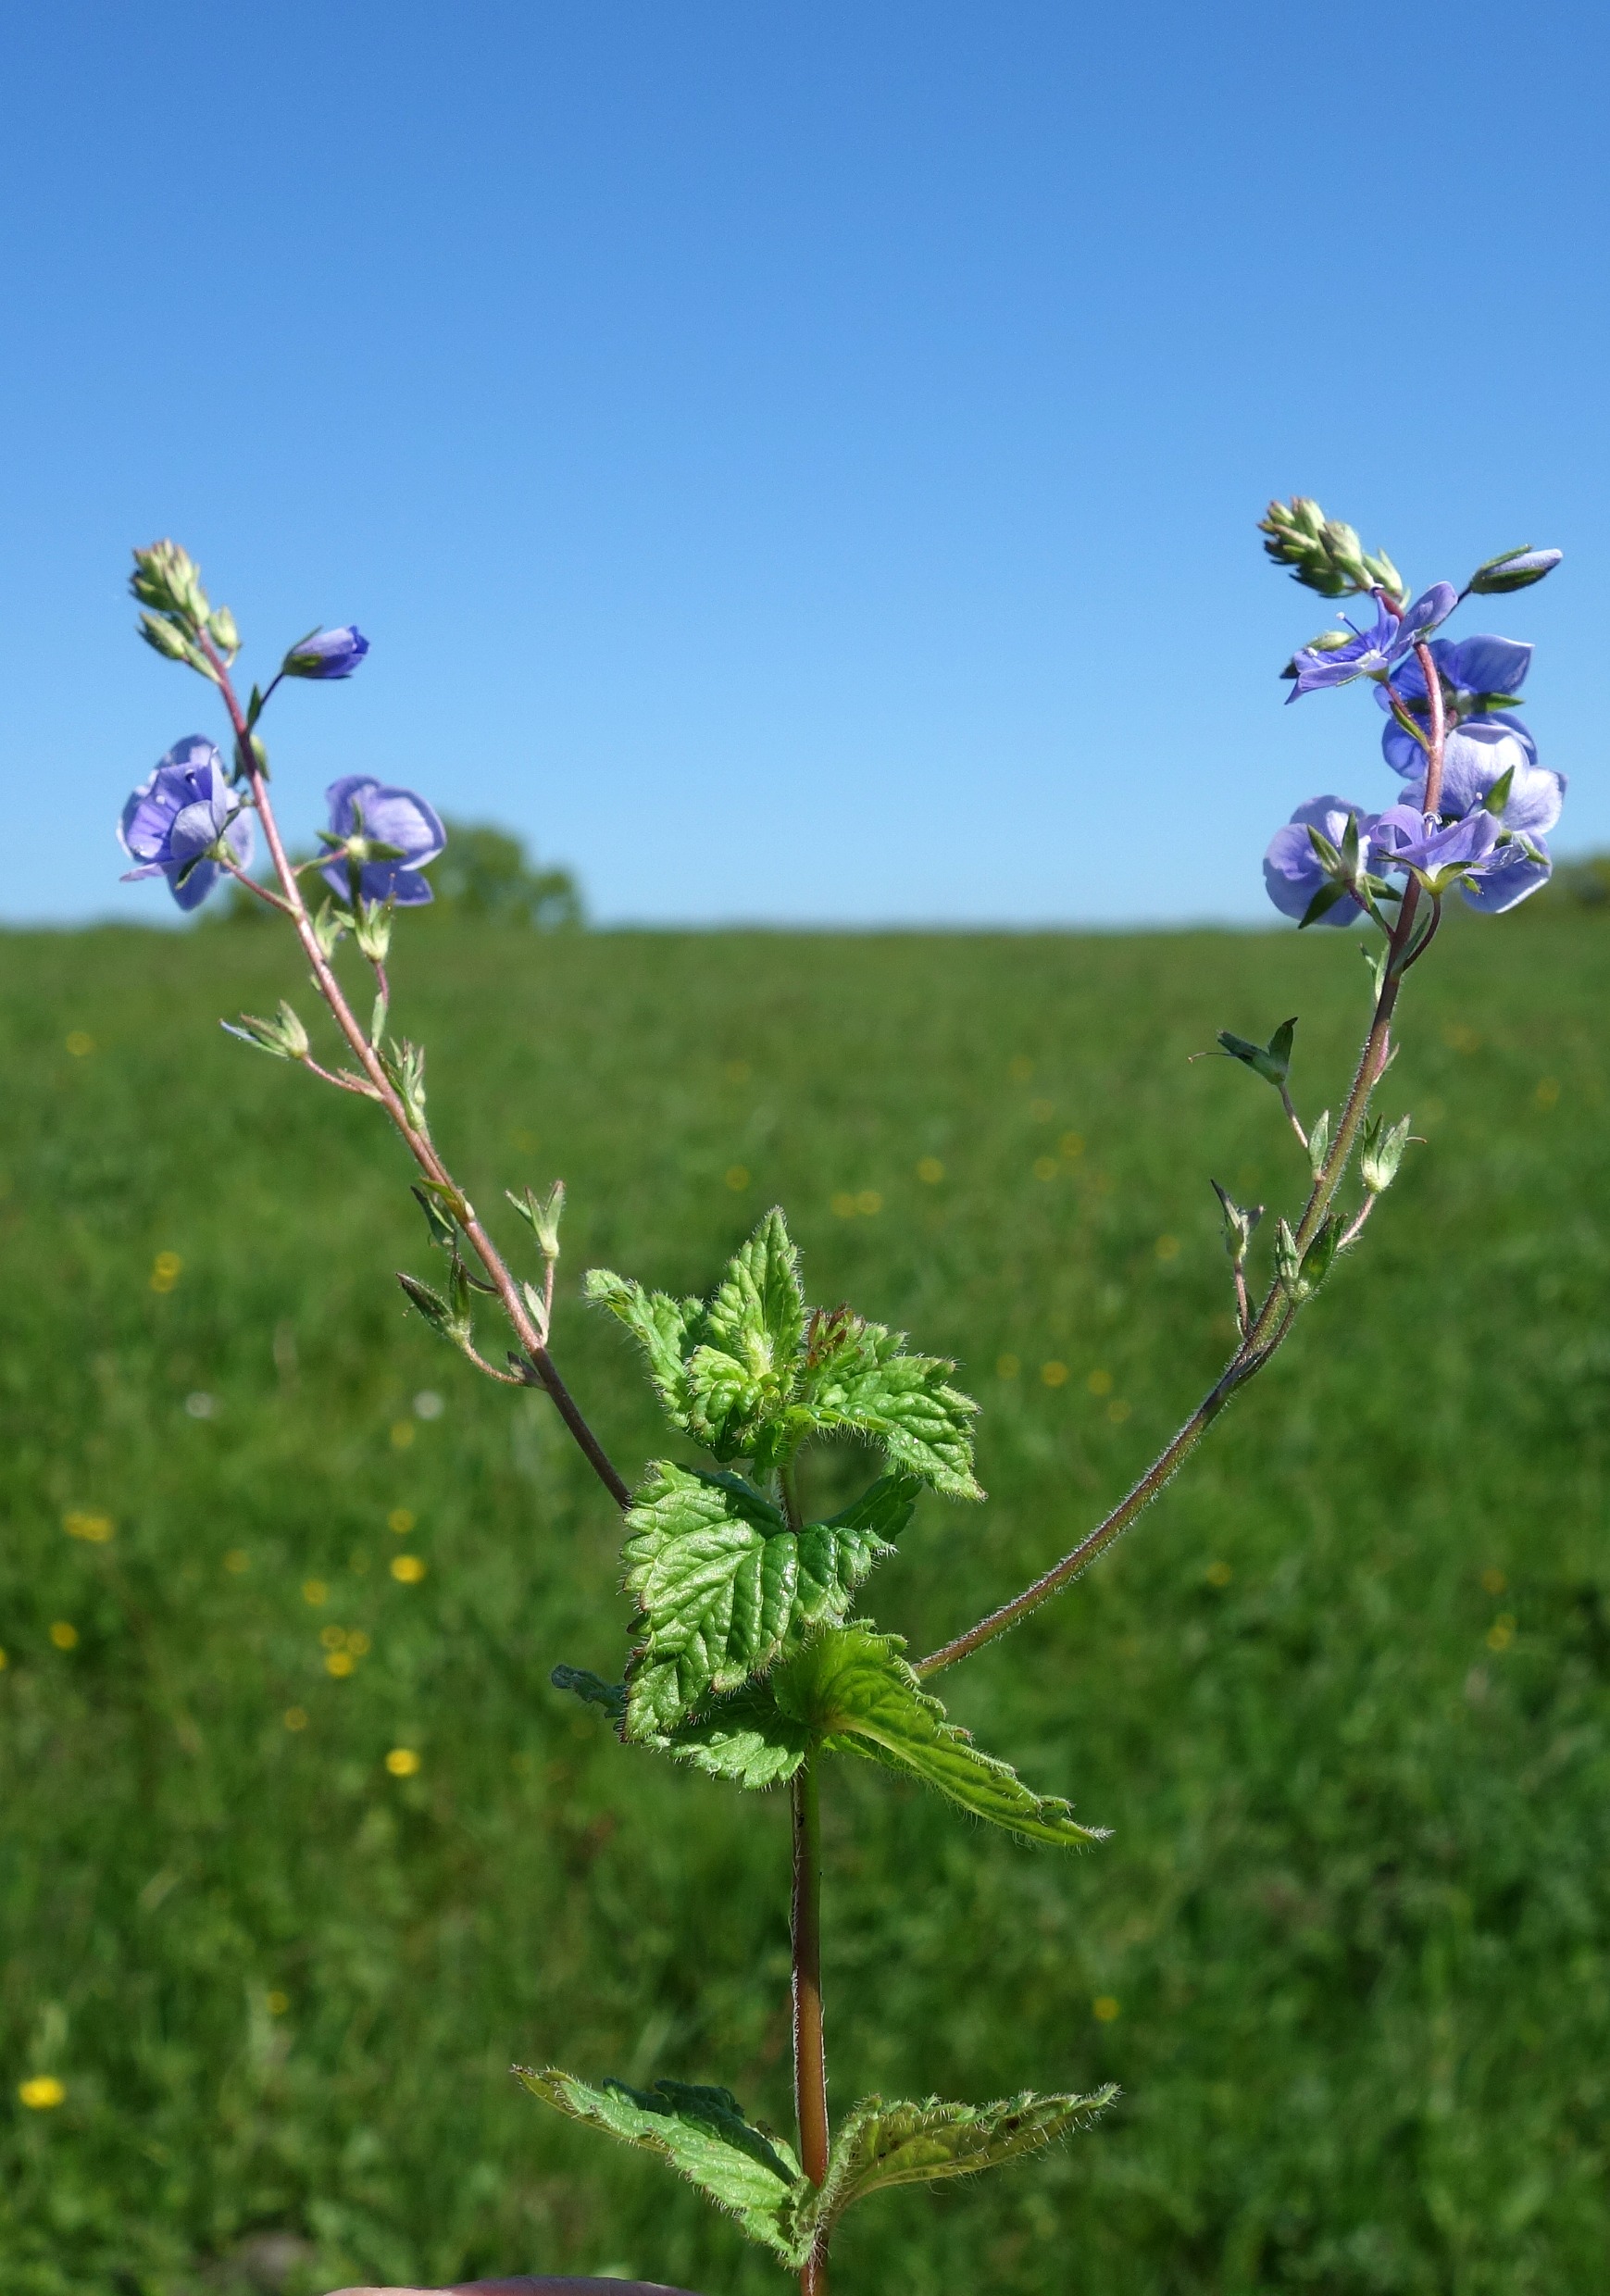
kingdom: Plantae
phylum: Tracheophyta
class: Magnoliopsida
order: Lamiales
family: Plantaginaceae
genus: Veronica
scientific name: Veronica chamaedrys
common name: Tveskægget ærenpris
